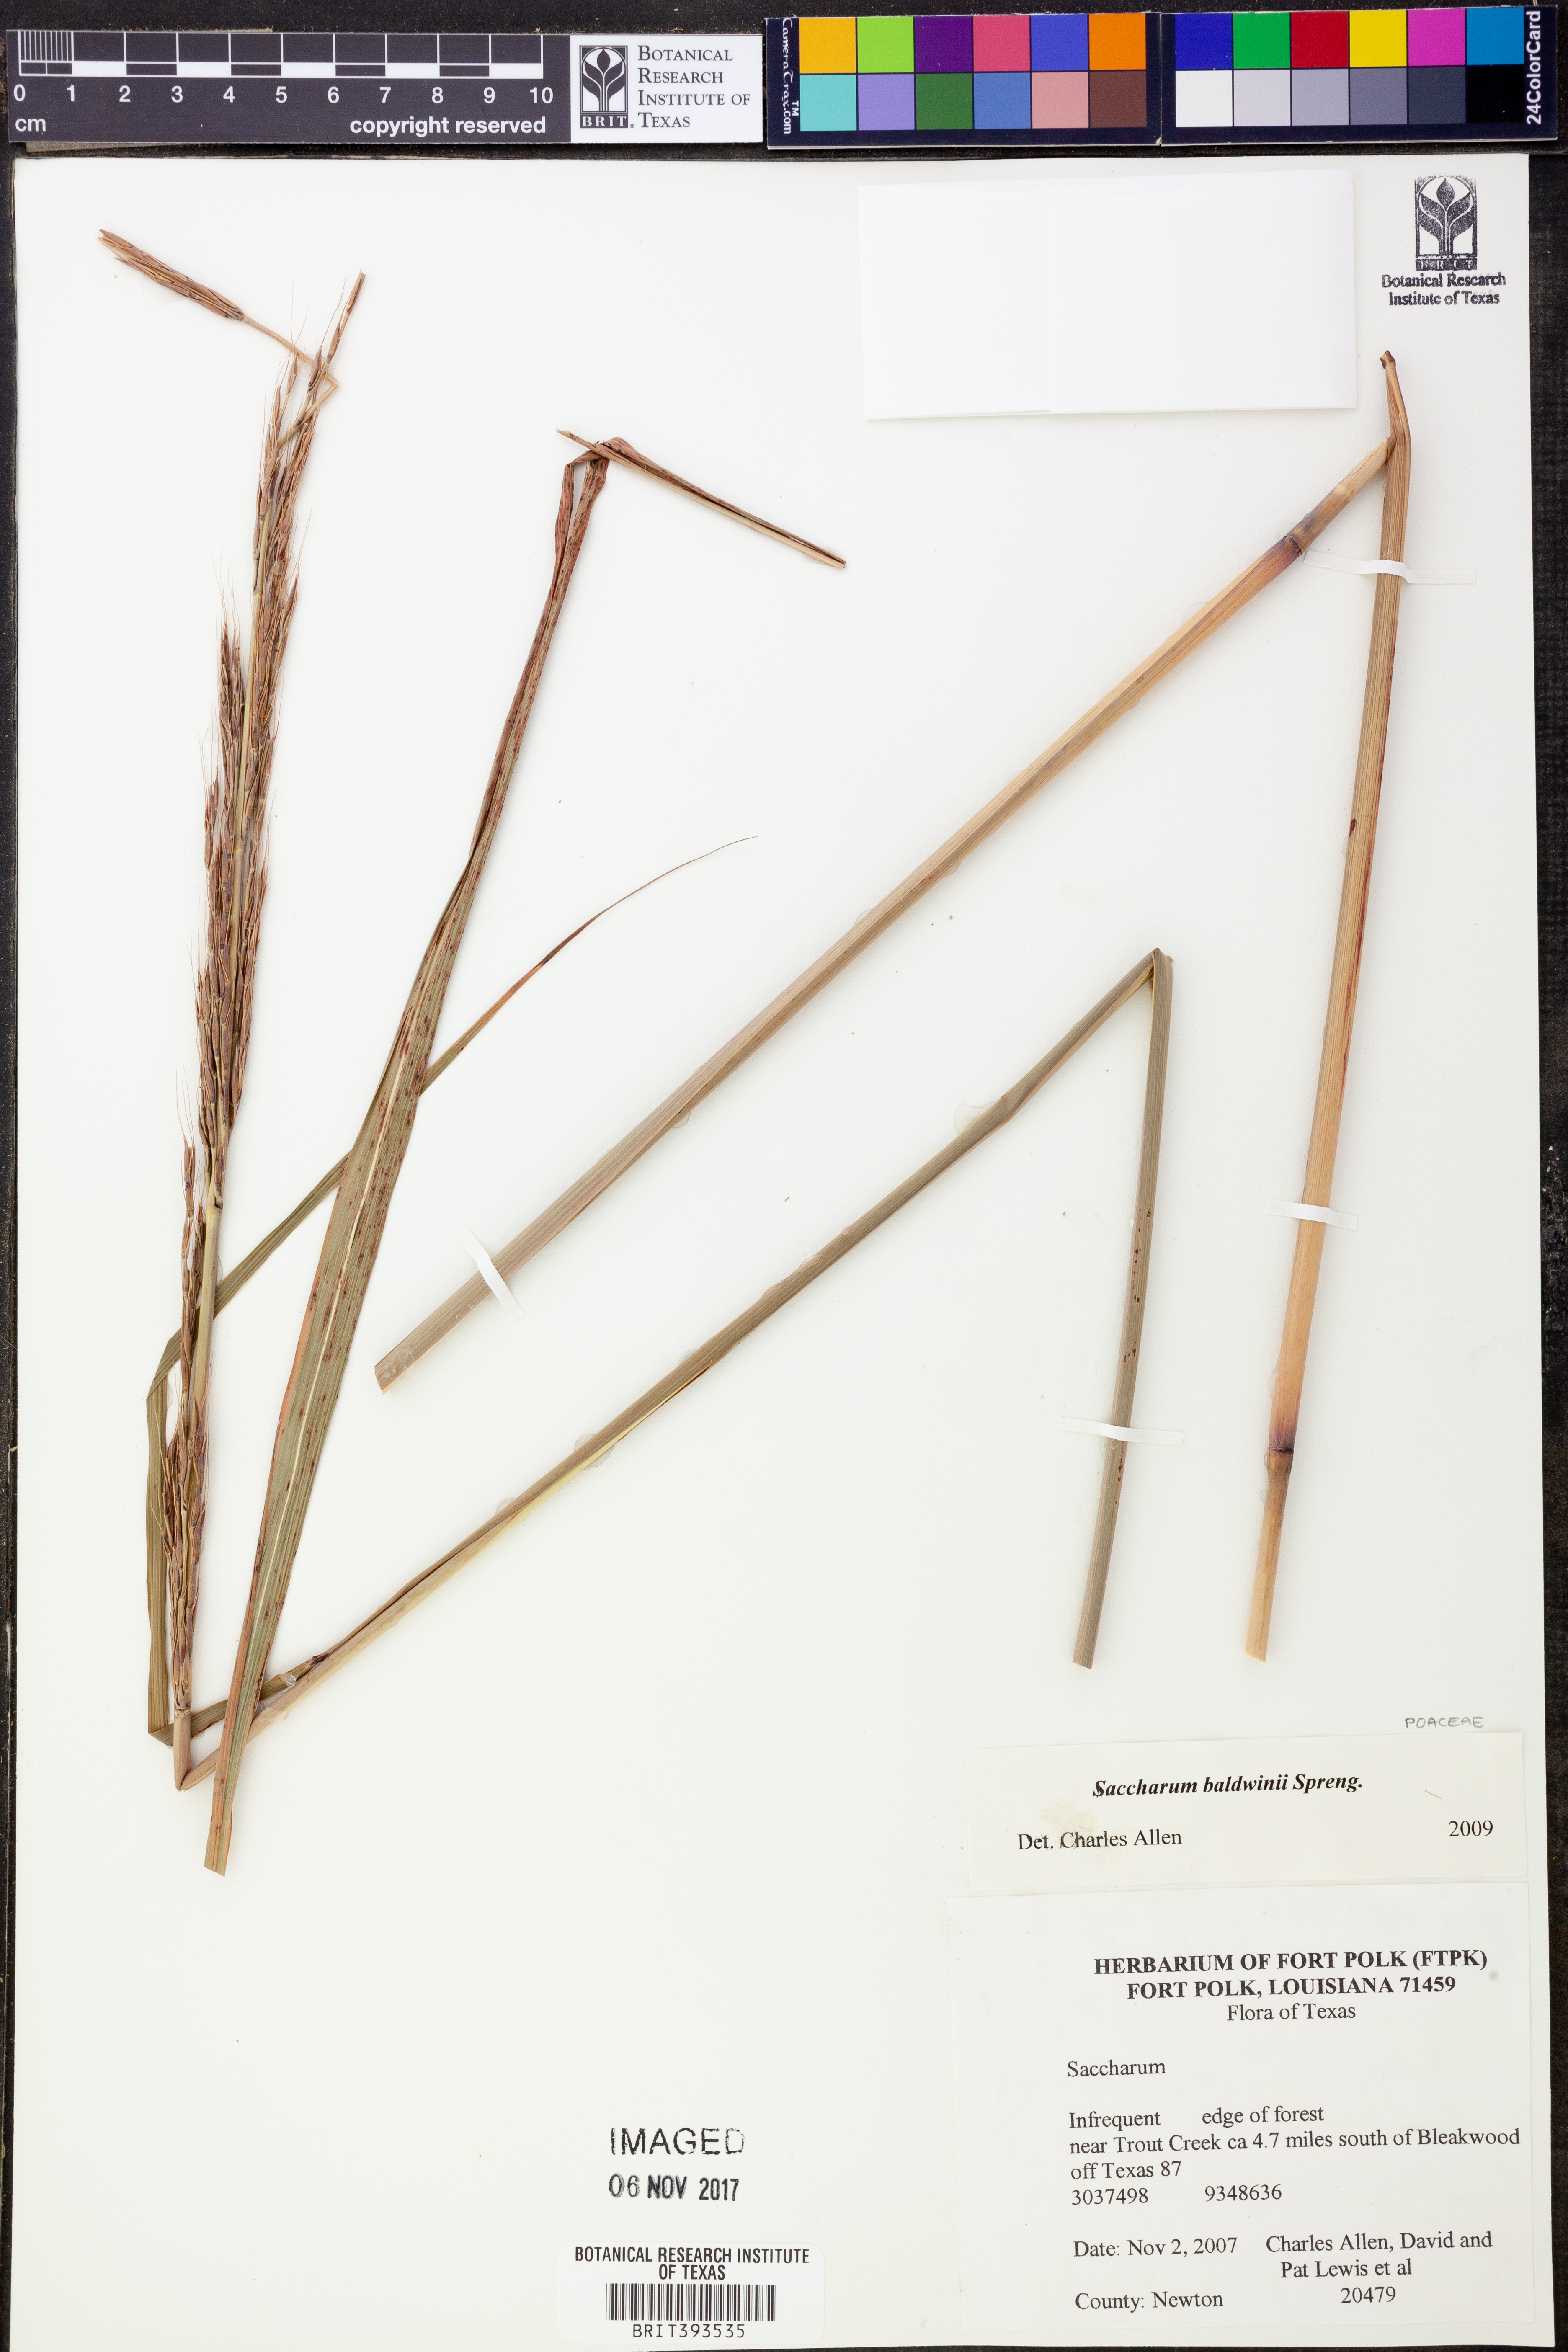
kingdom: Plantae
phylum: Tracheophyta
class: Liliopsida
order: Poales
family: Poaceae
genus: Erianthus
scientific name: Erianthus strictus
